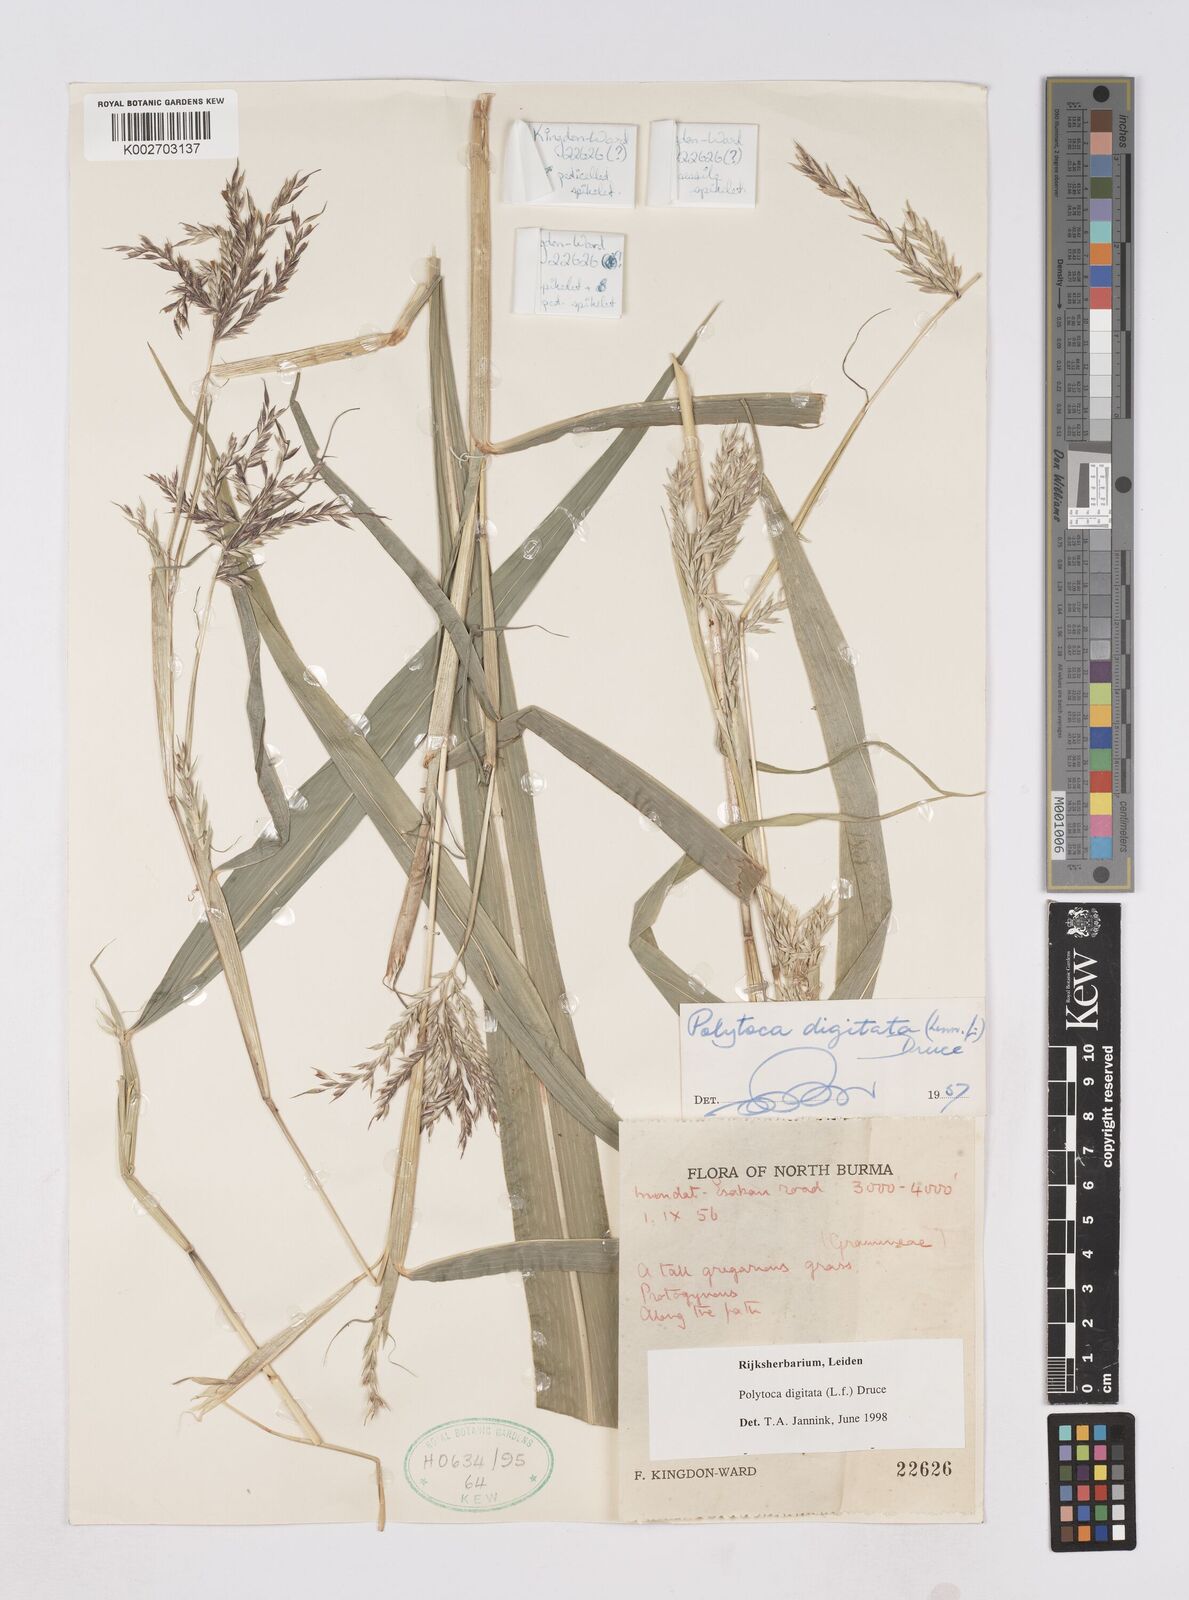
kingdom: Plantae
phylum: Tracheophyta
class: Liliopsida
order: Poales
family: Poaceae
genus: Polytoca
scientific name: Polytoca digitata
